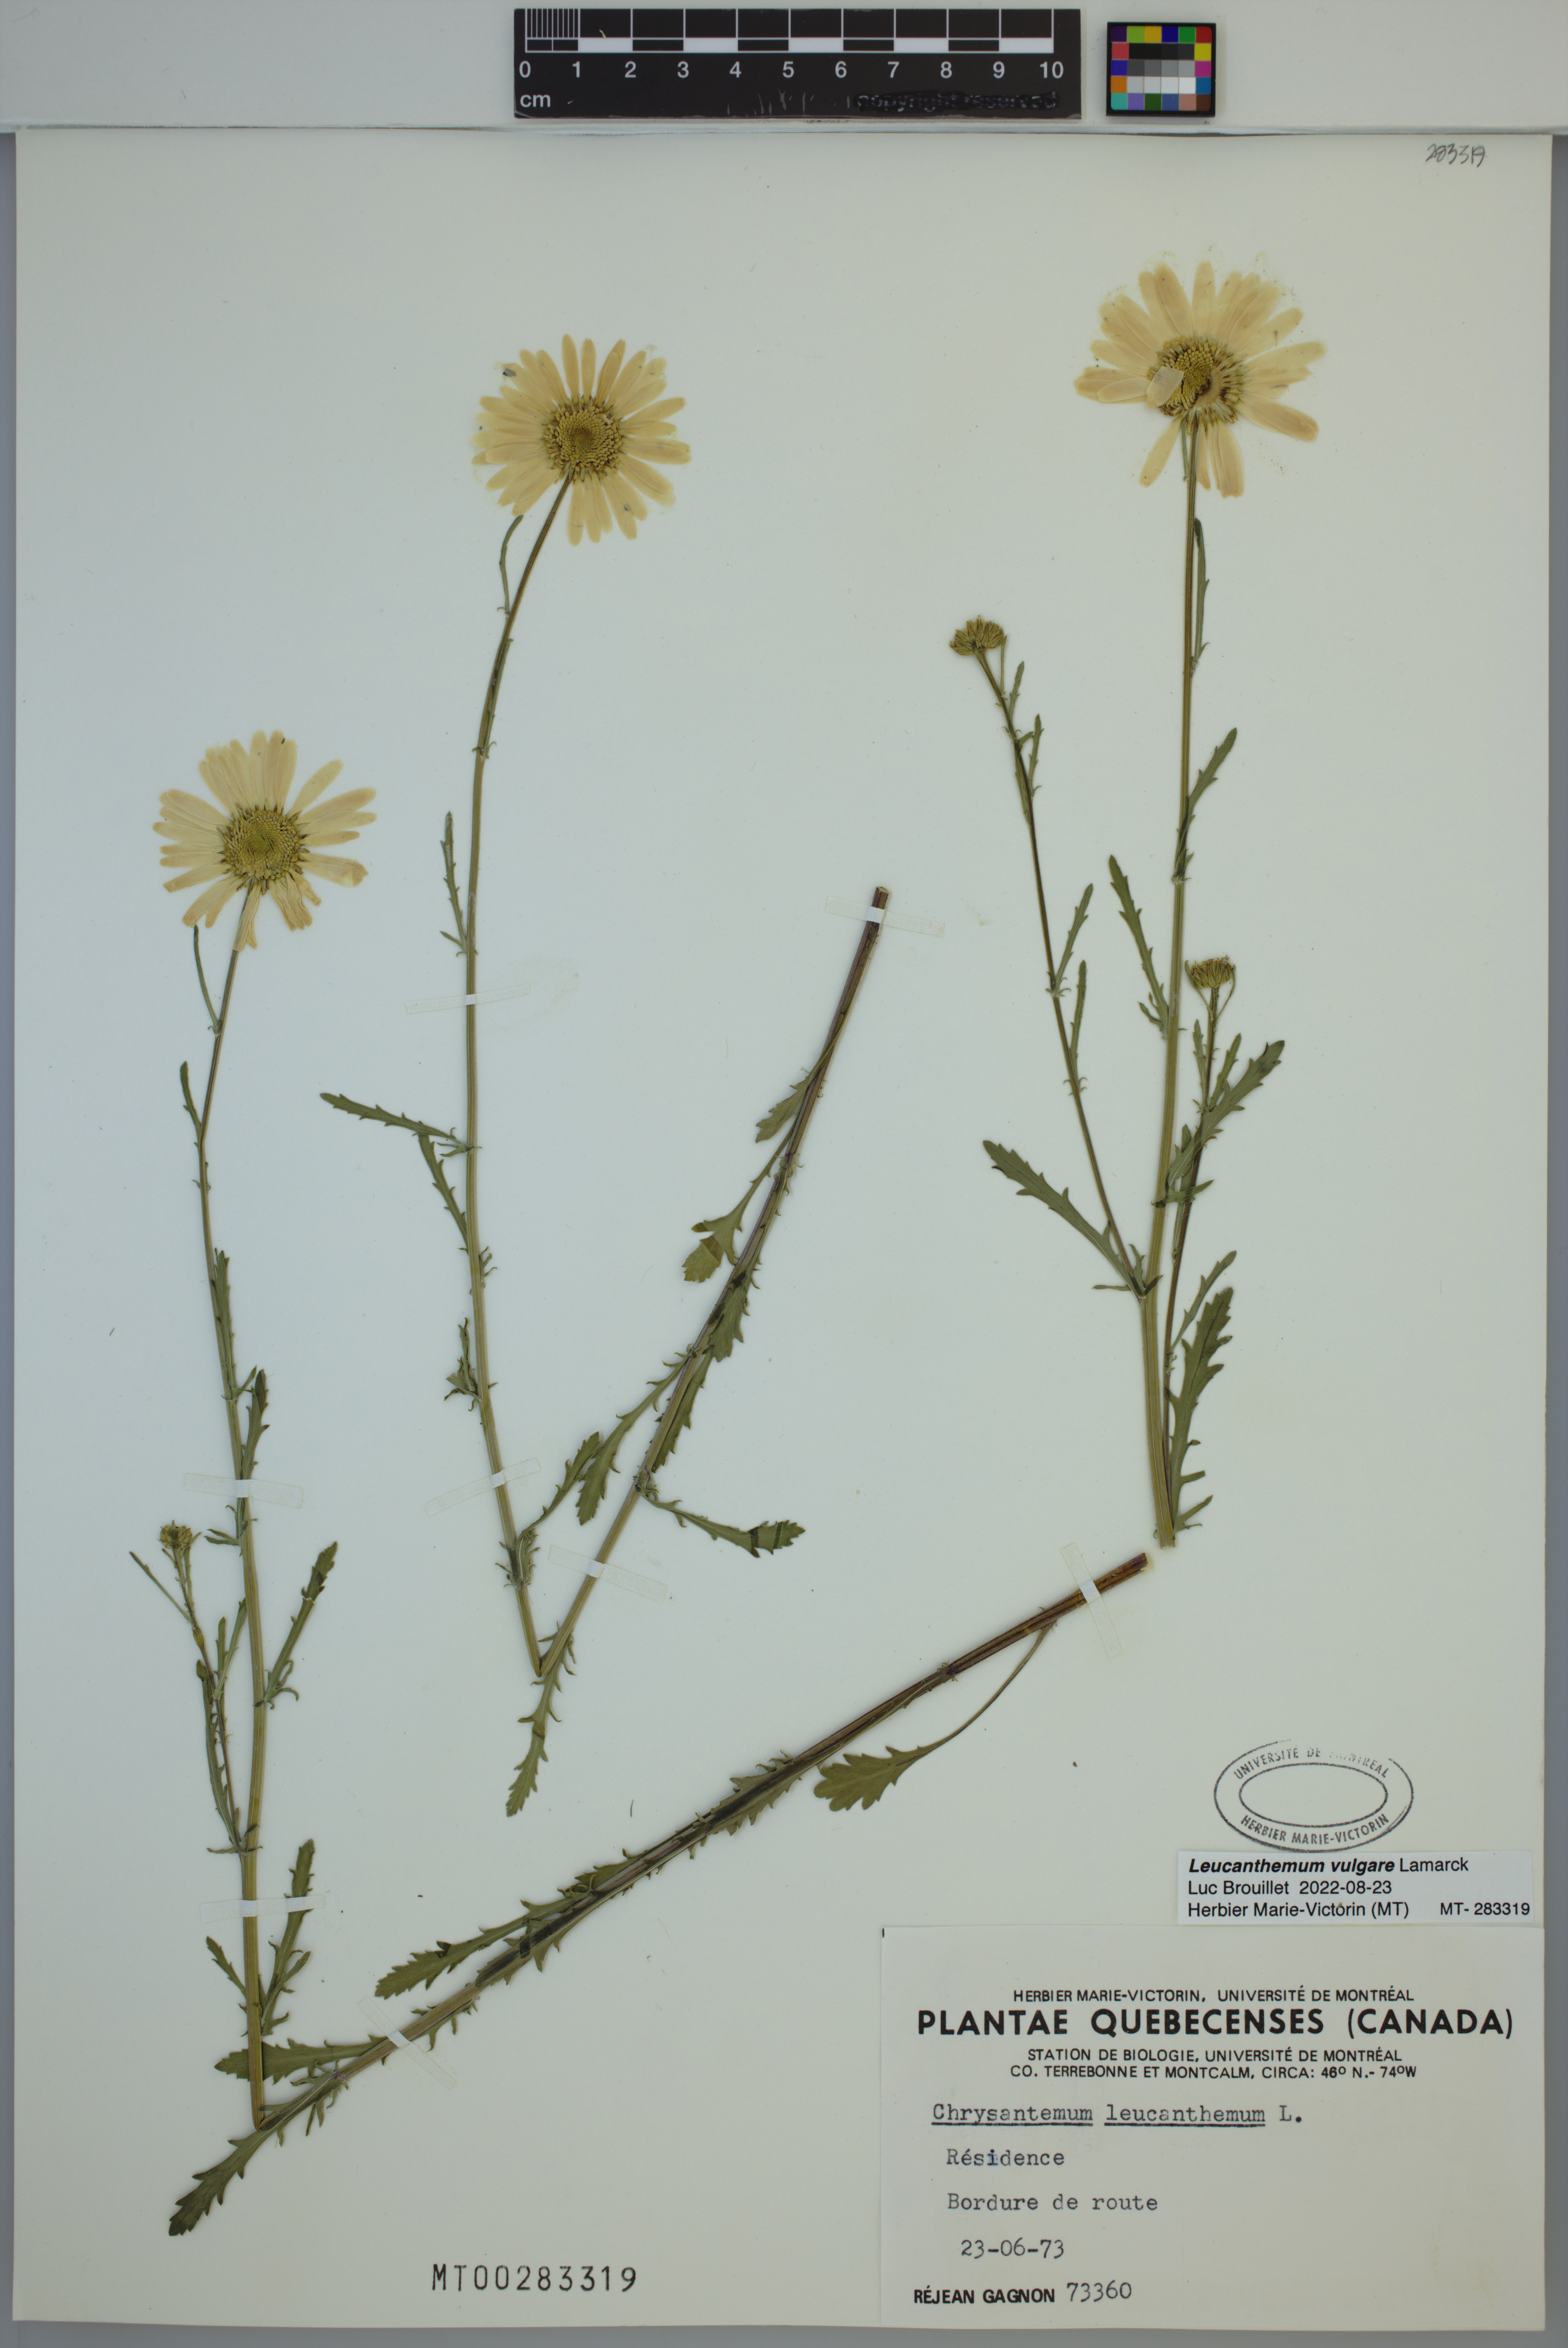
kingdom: Plantae
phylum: Tracheophyta
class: Magnoliopsida
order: Asterales
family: Asteraceae
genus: Leucanthemum
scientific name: Leucanthemum vulgare
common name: Oxeye daisy
